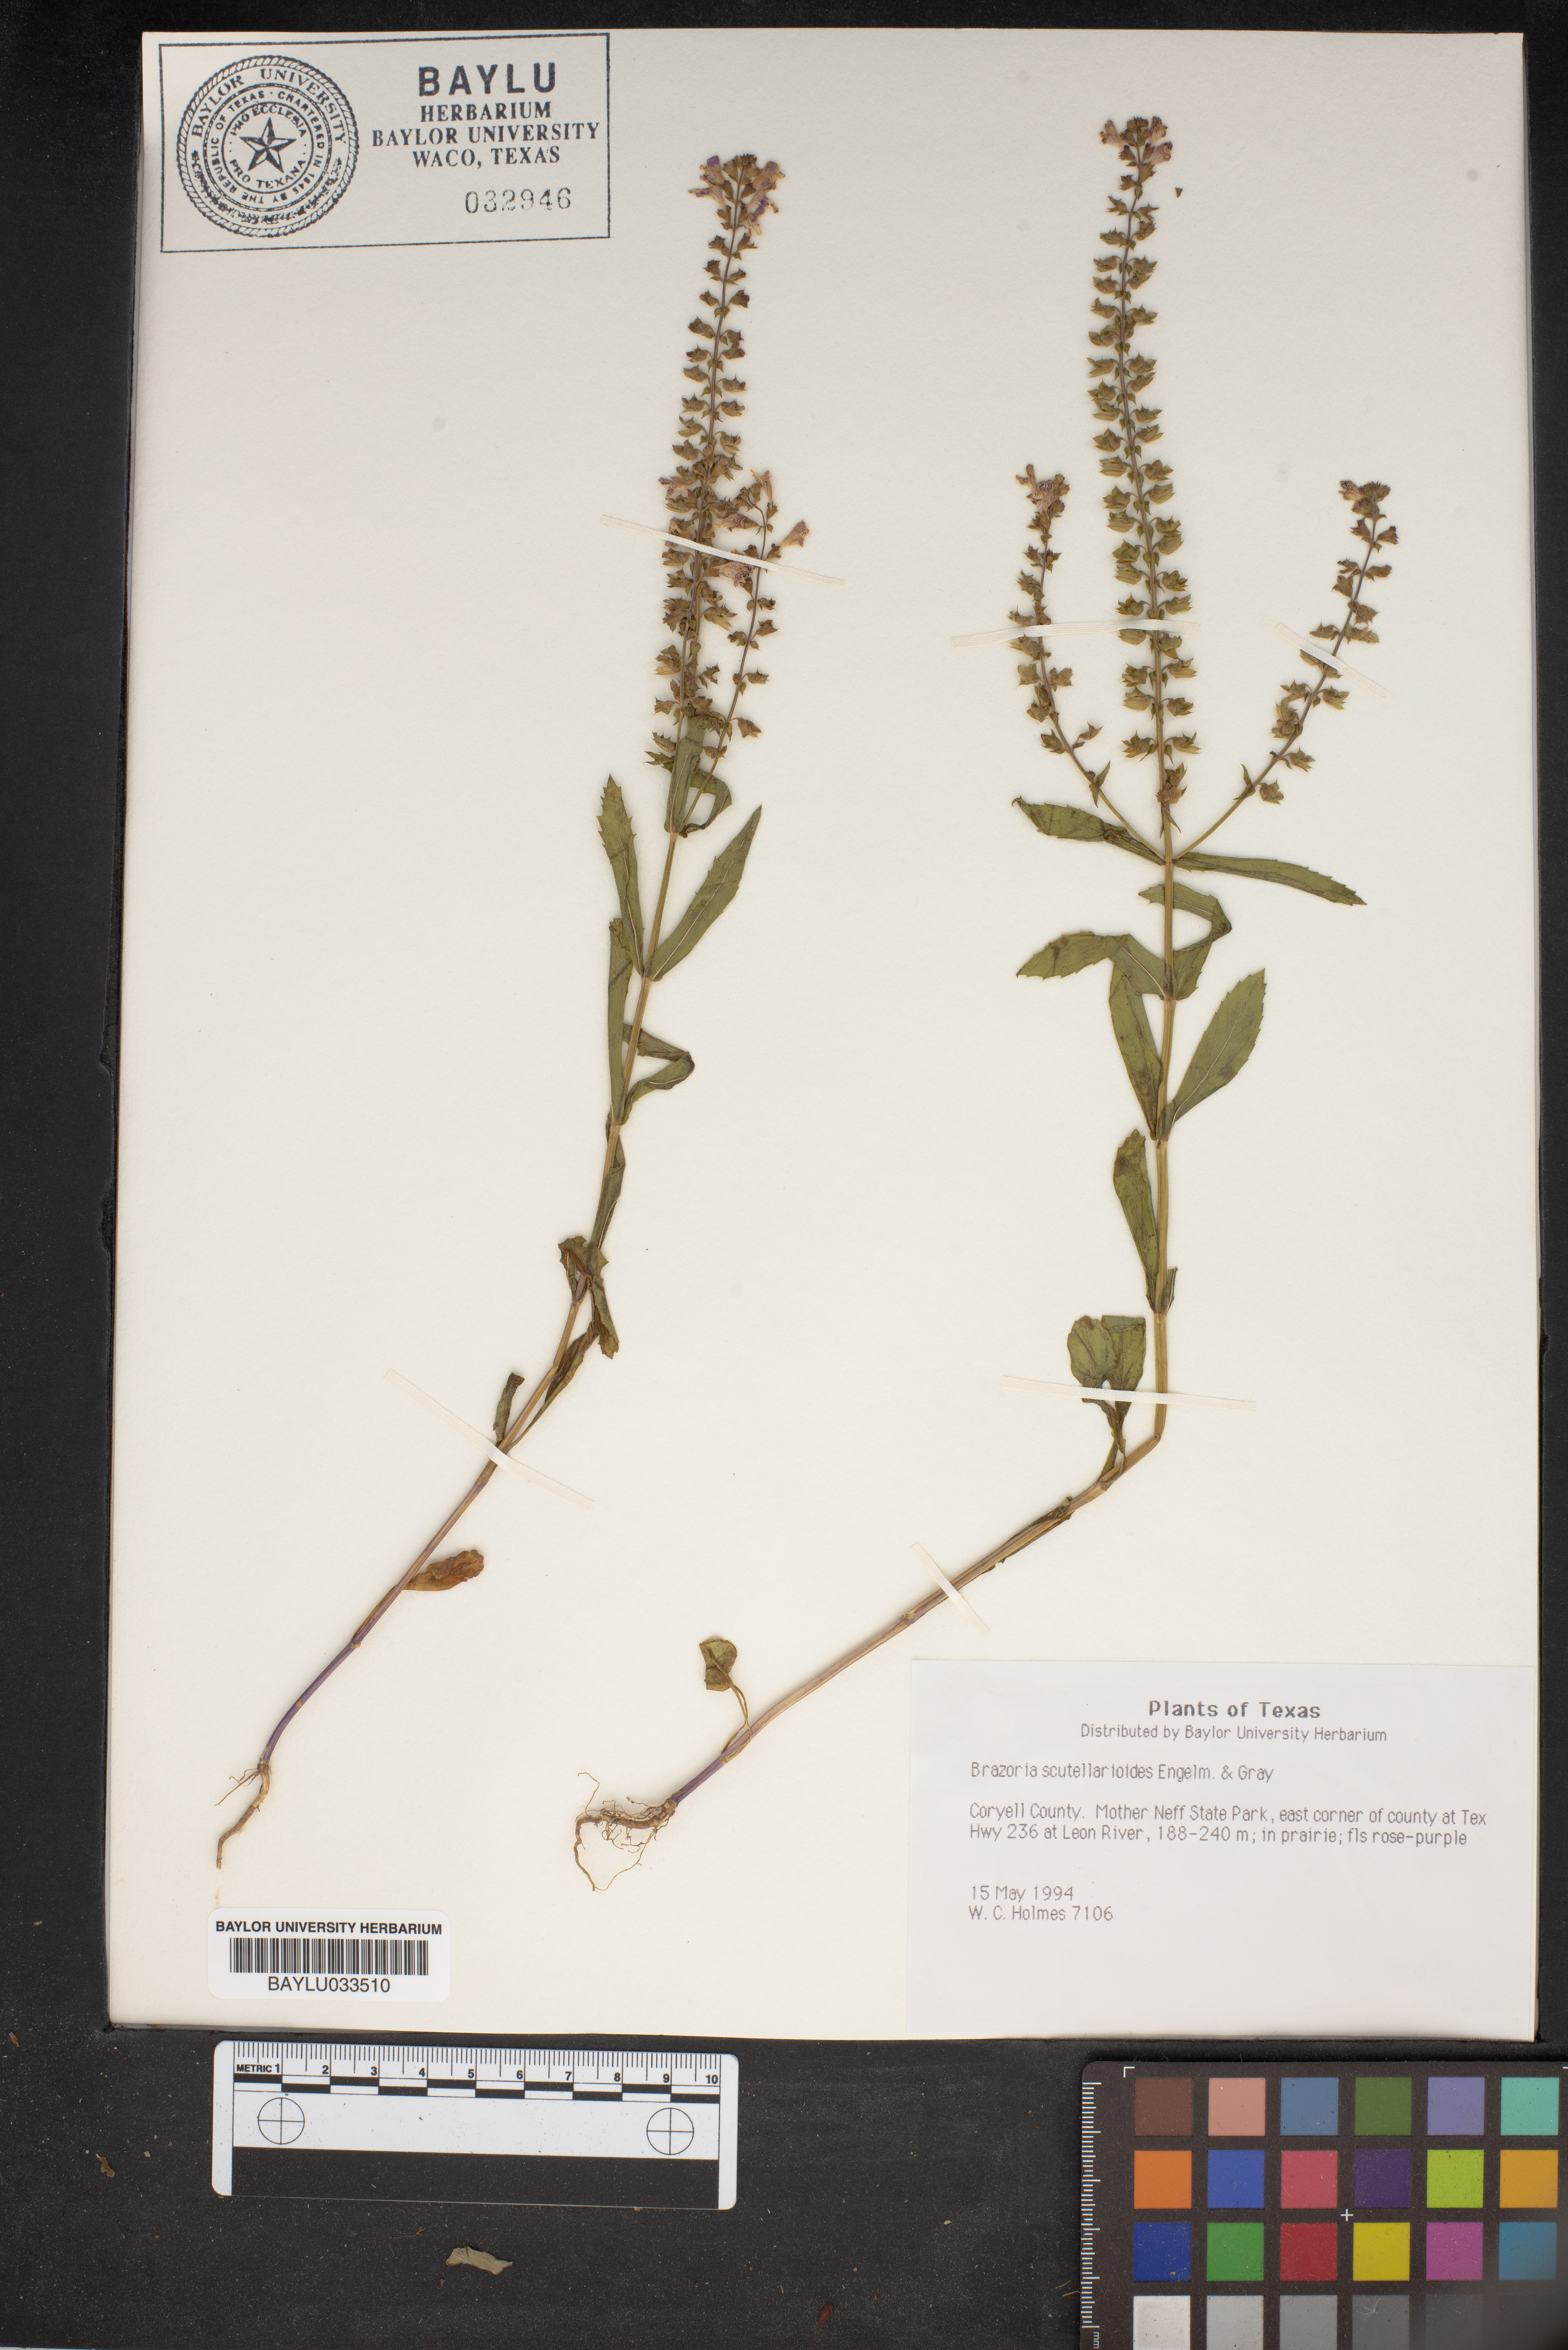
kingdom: Plantae
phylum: Tracheophyta
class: Magnoliopsida
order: Lamiales
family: Lamiaceae
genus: Warnockia
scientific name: Warnockia scutellarioides
